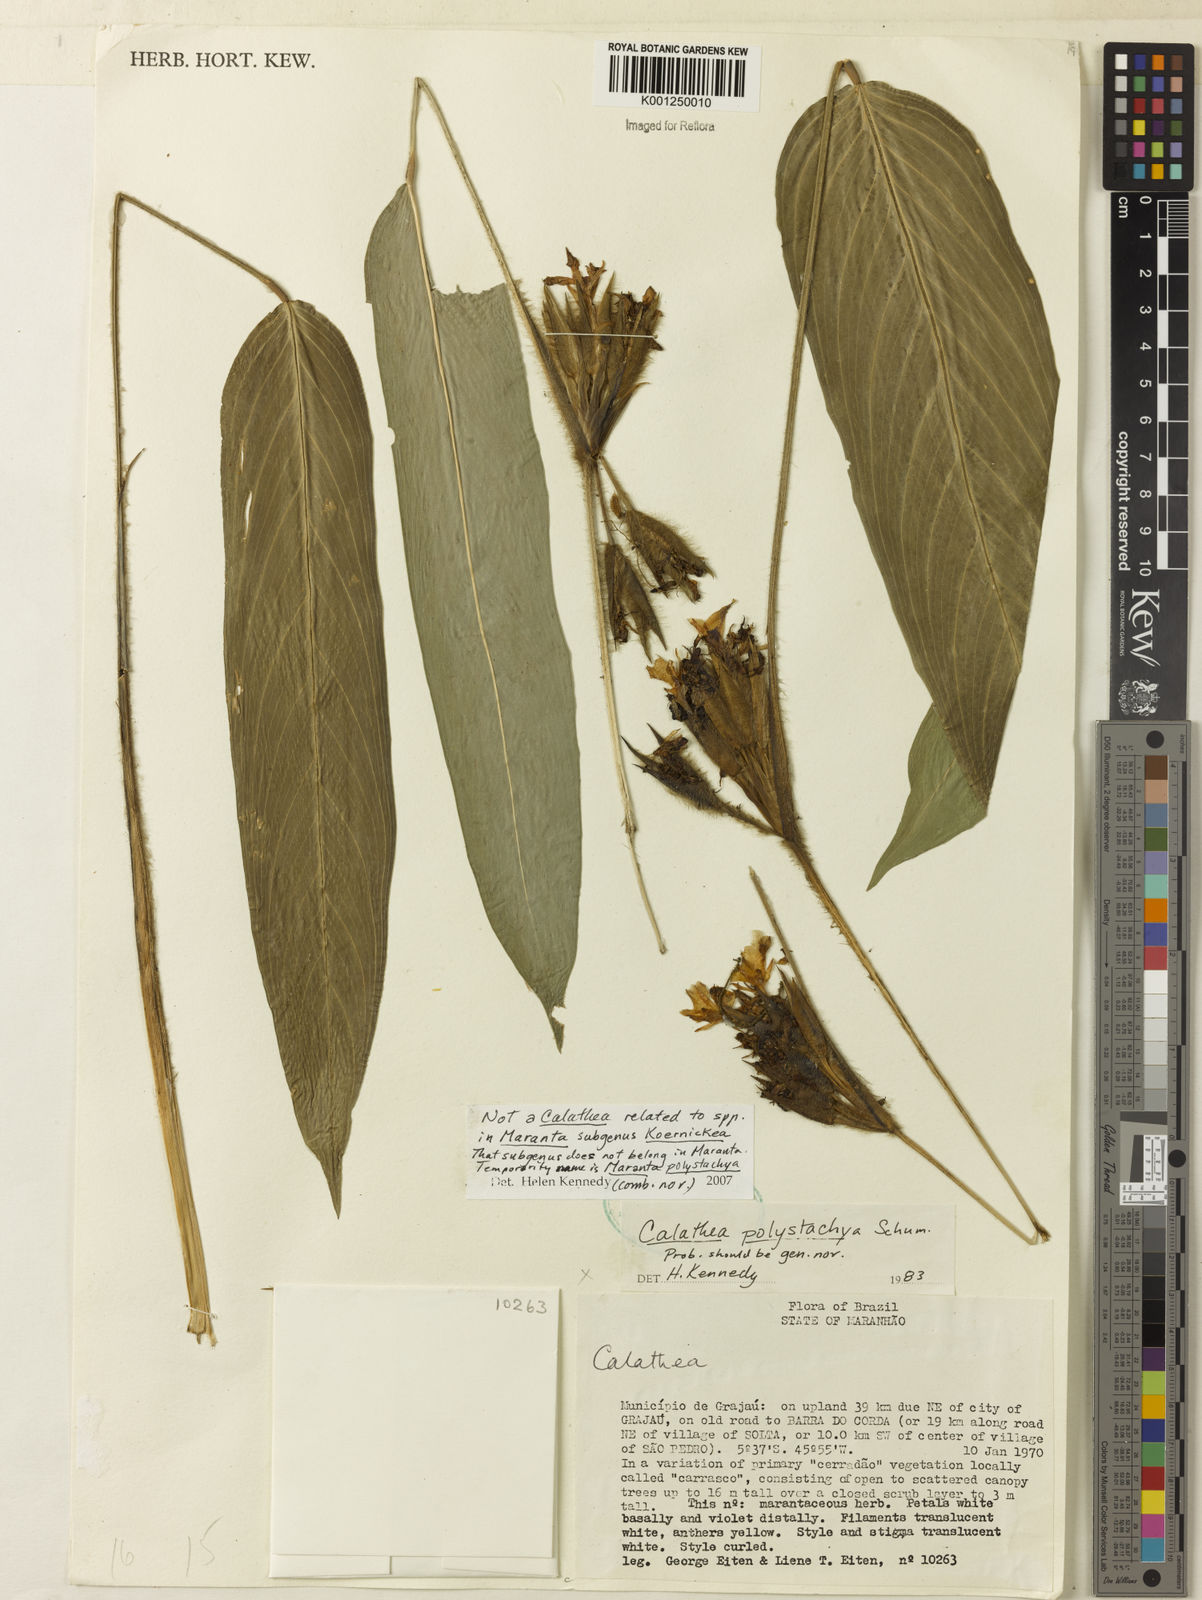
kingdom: Plantae
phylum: Tracheophyta
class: Liliopsida
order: Zingiberales
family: Marantaceae
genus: Ischnosiphon
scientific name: Ischnosiphon polyphyllus
